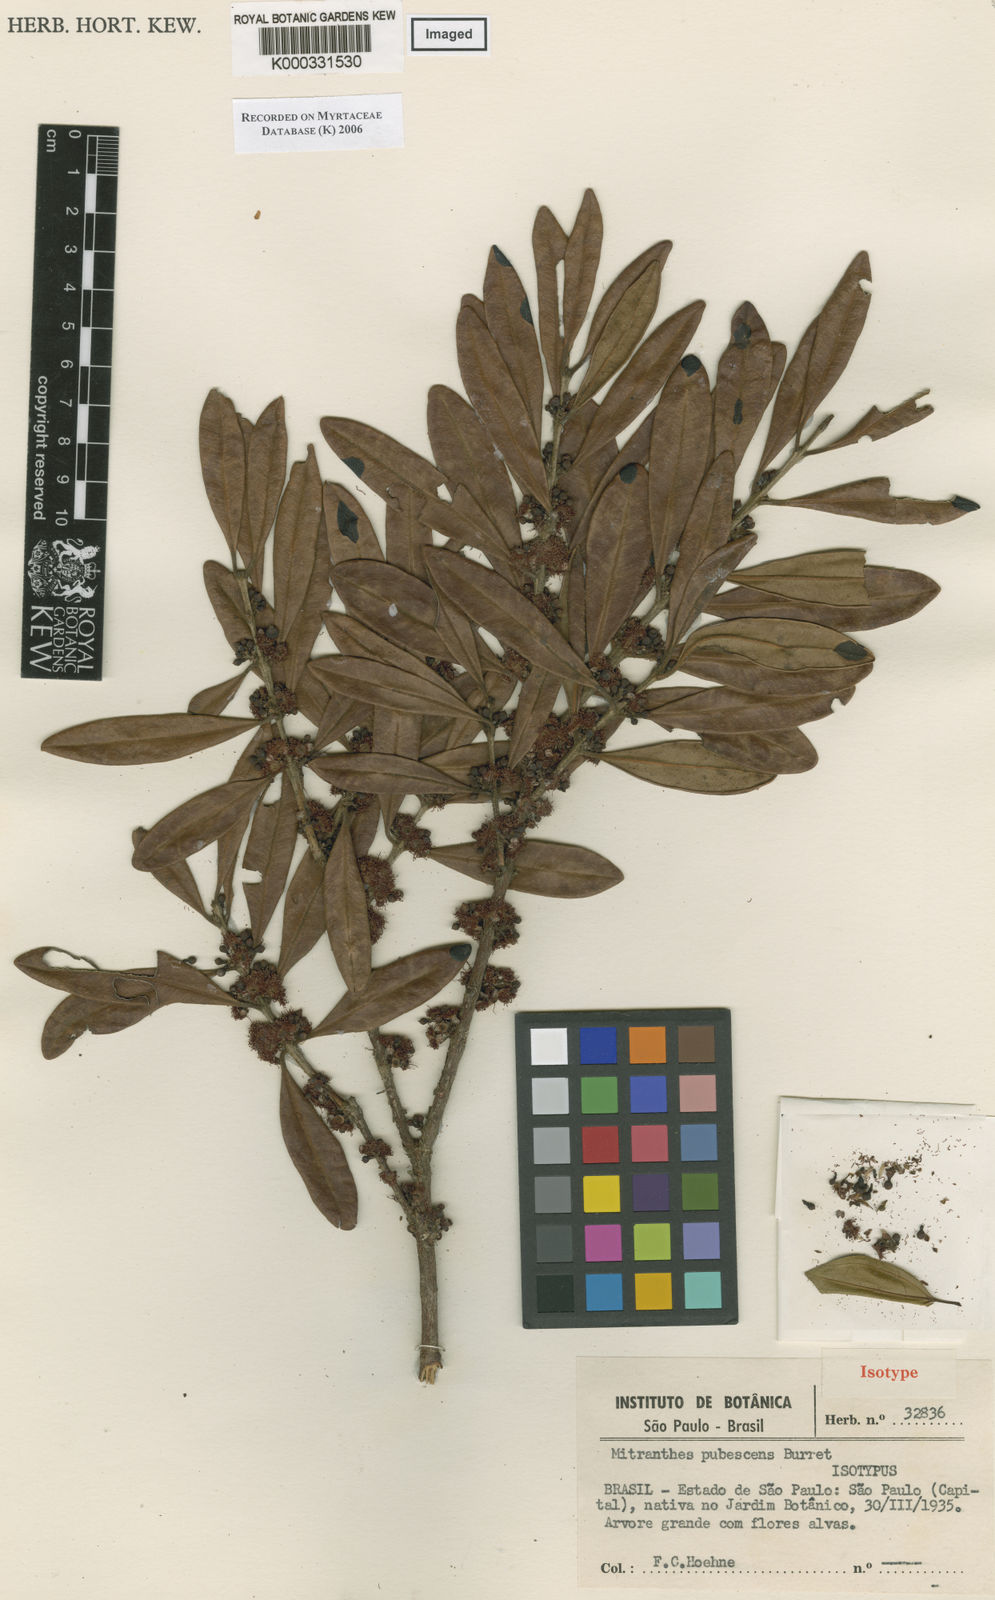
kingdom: Plantae
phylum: Tracheophyta
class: Magnoliopsida
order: Myrtales
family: Myrtaceae
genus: Siphoneugena
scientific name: Siphoneugena
